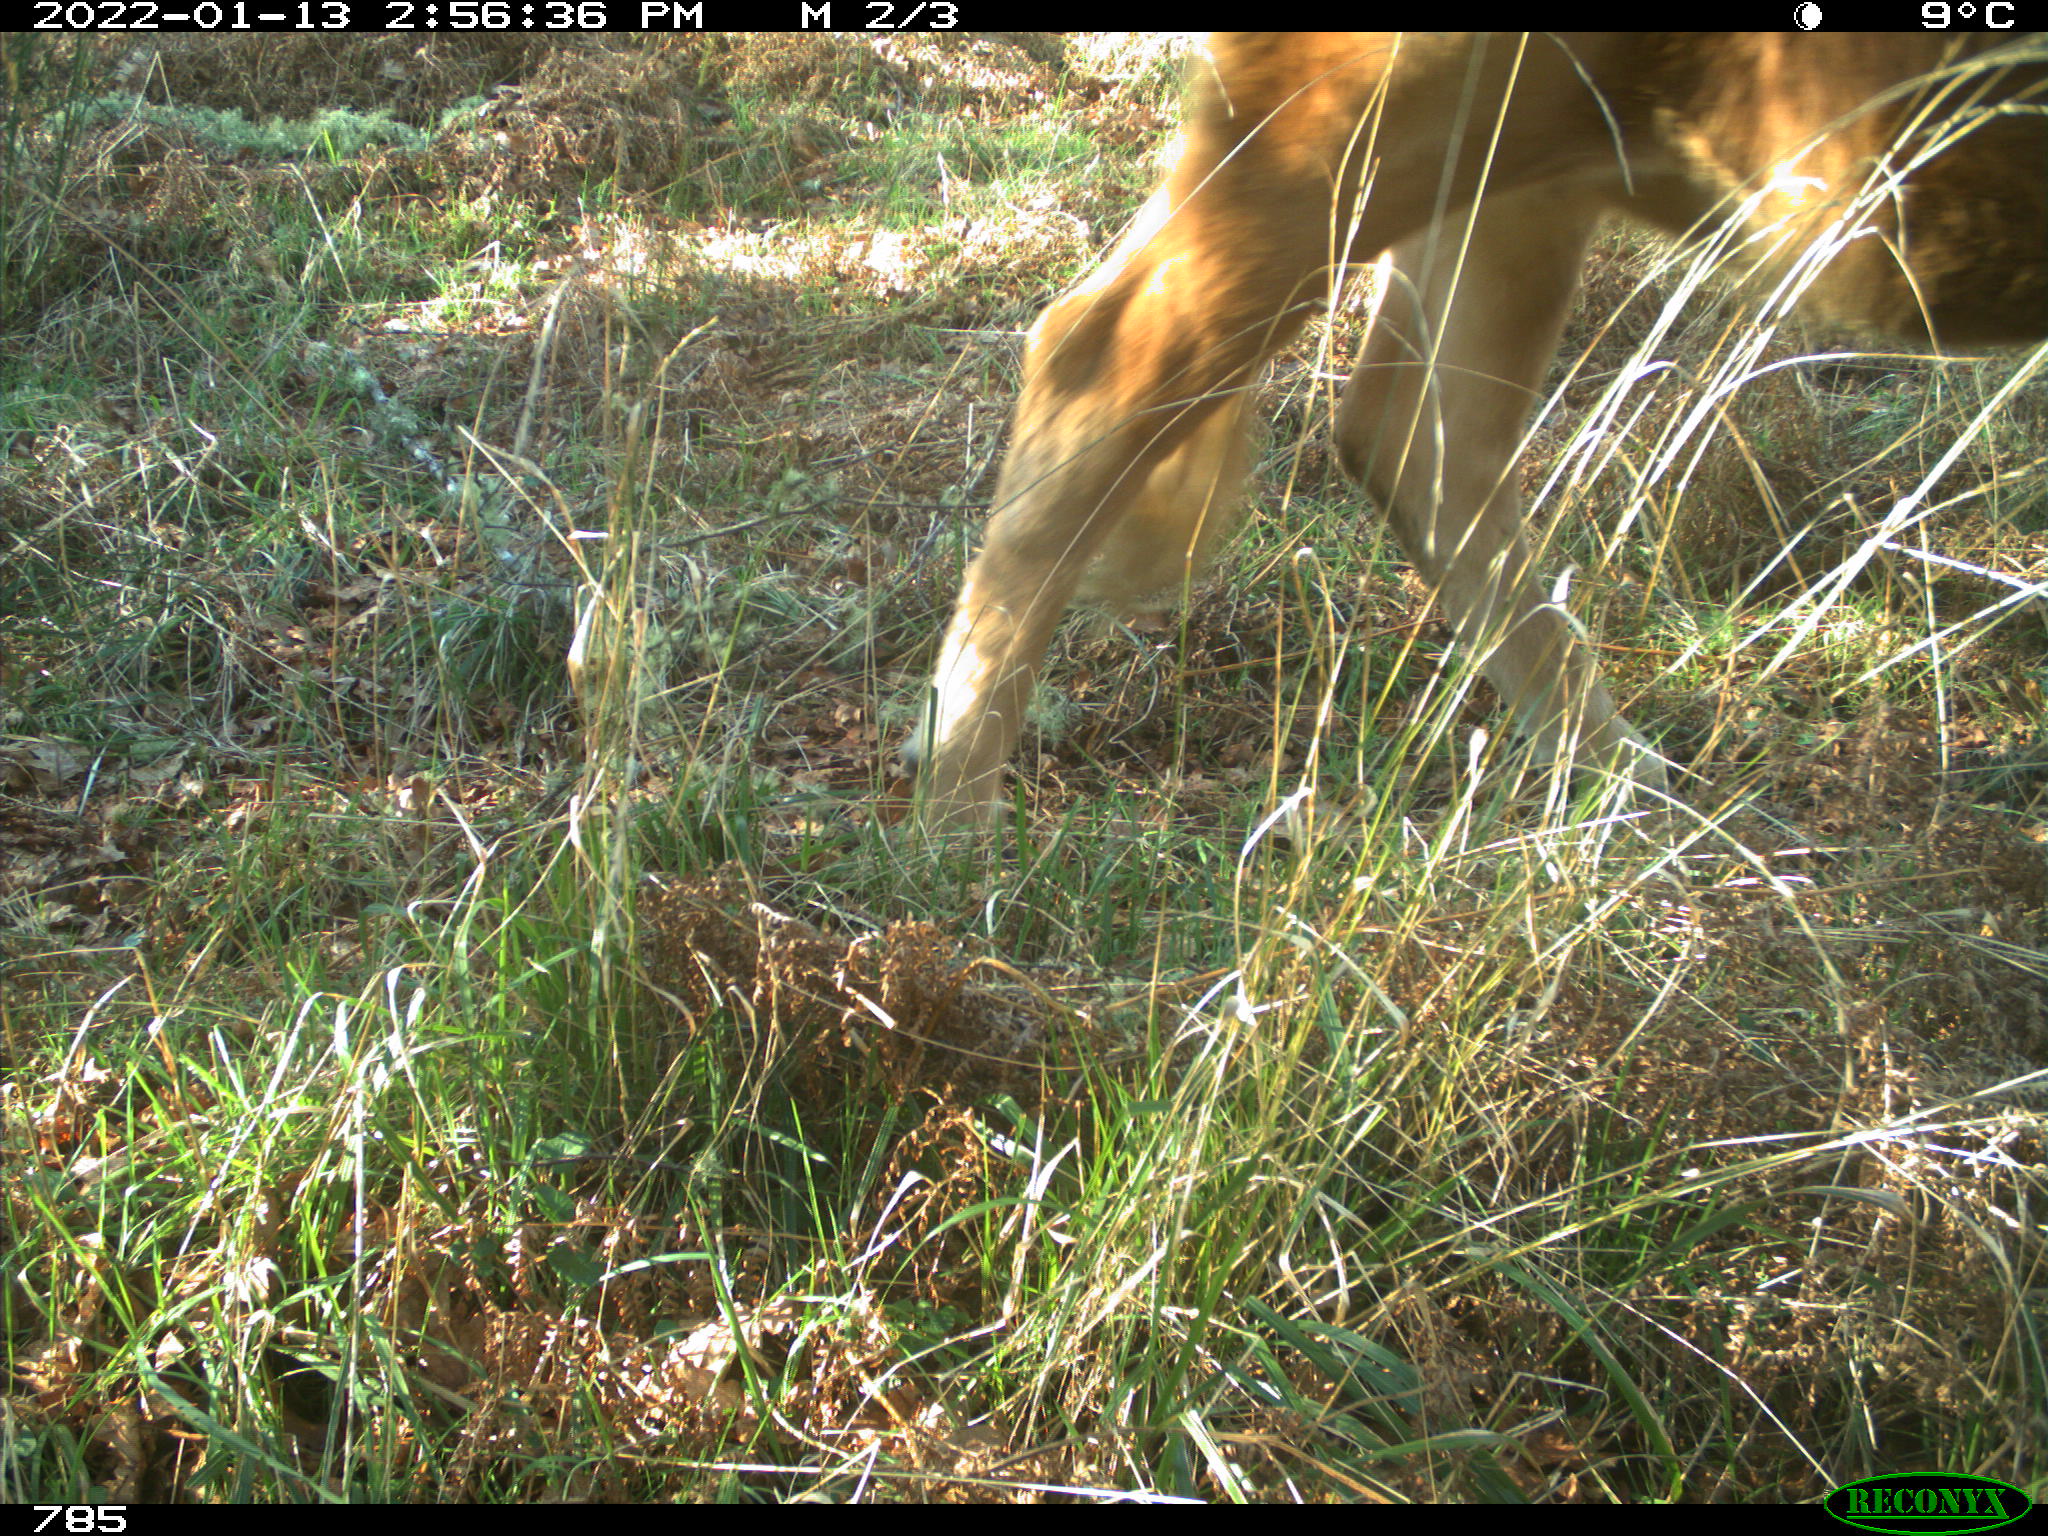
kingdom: Animalia
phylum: Chordata
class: Mammalia
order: Artiodactyla
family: Bovidae
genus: Bos
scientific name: Bos taurus
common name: Domesticated cattle
